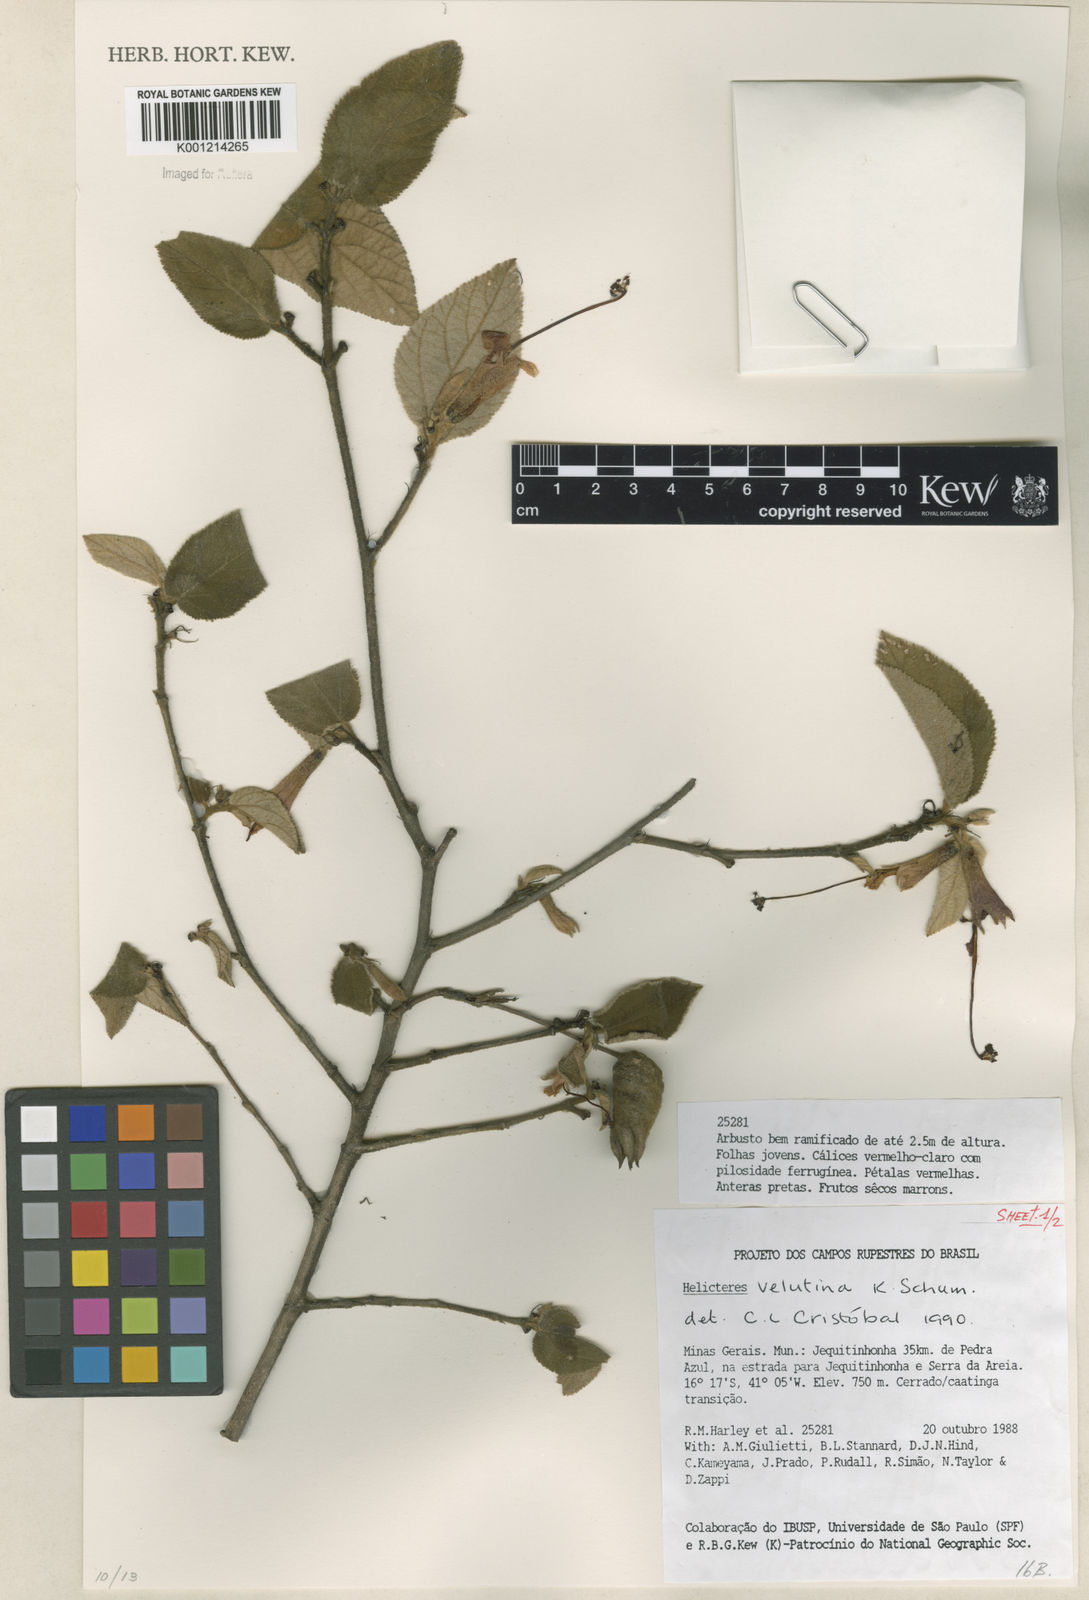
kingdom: Plantae
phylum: Tracheophyta
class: Magnoliopsida
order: Malvales
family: Malvaceae
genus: Helicteres
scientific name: Helicteres velutina
